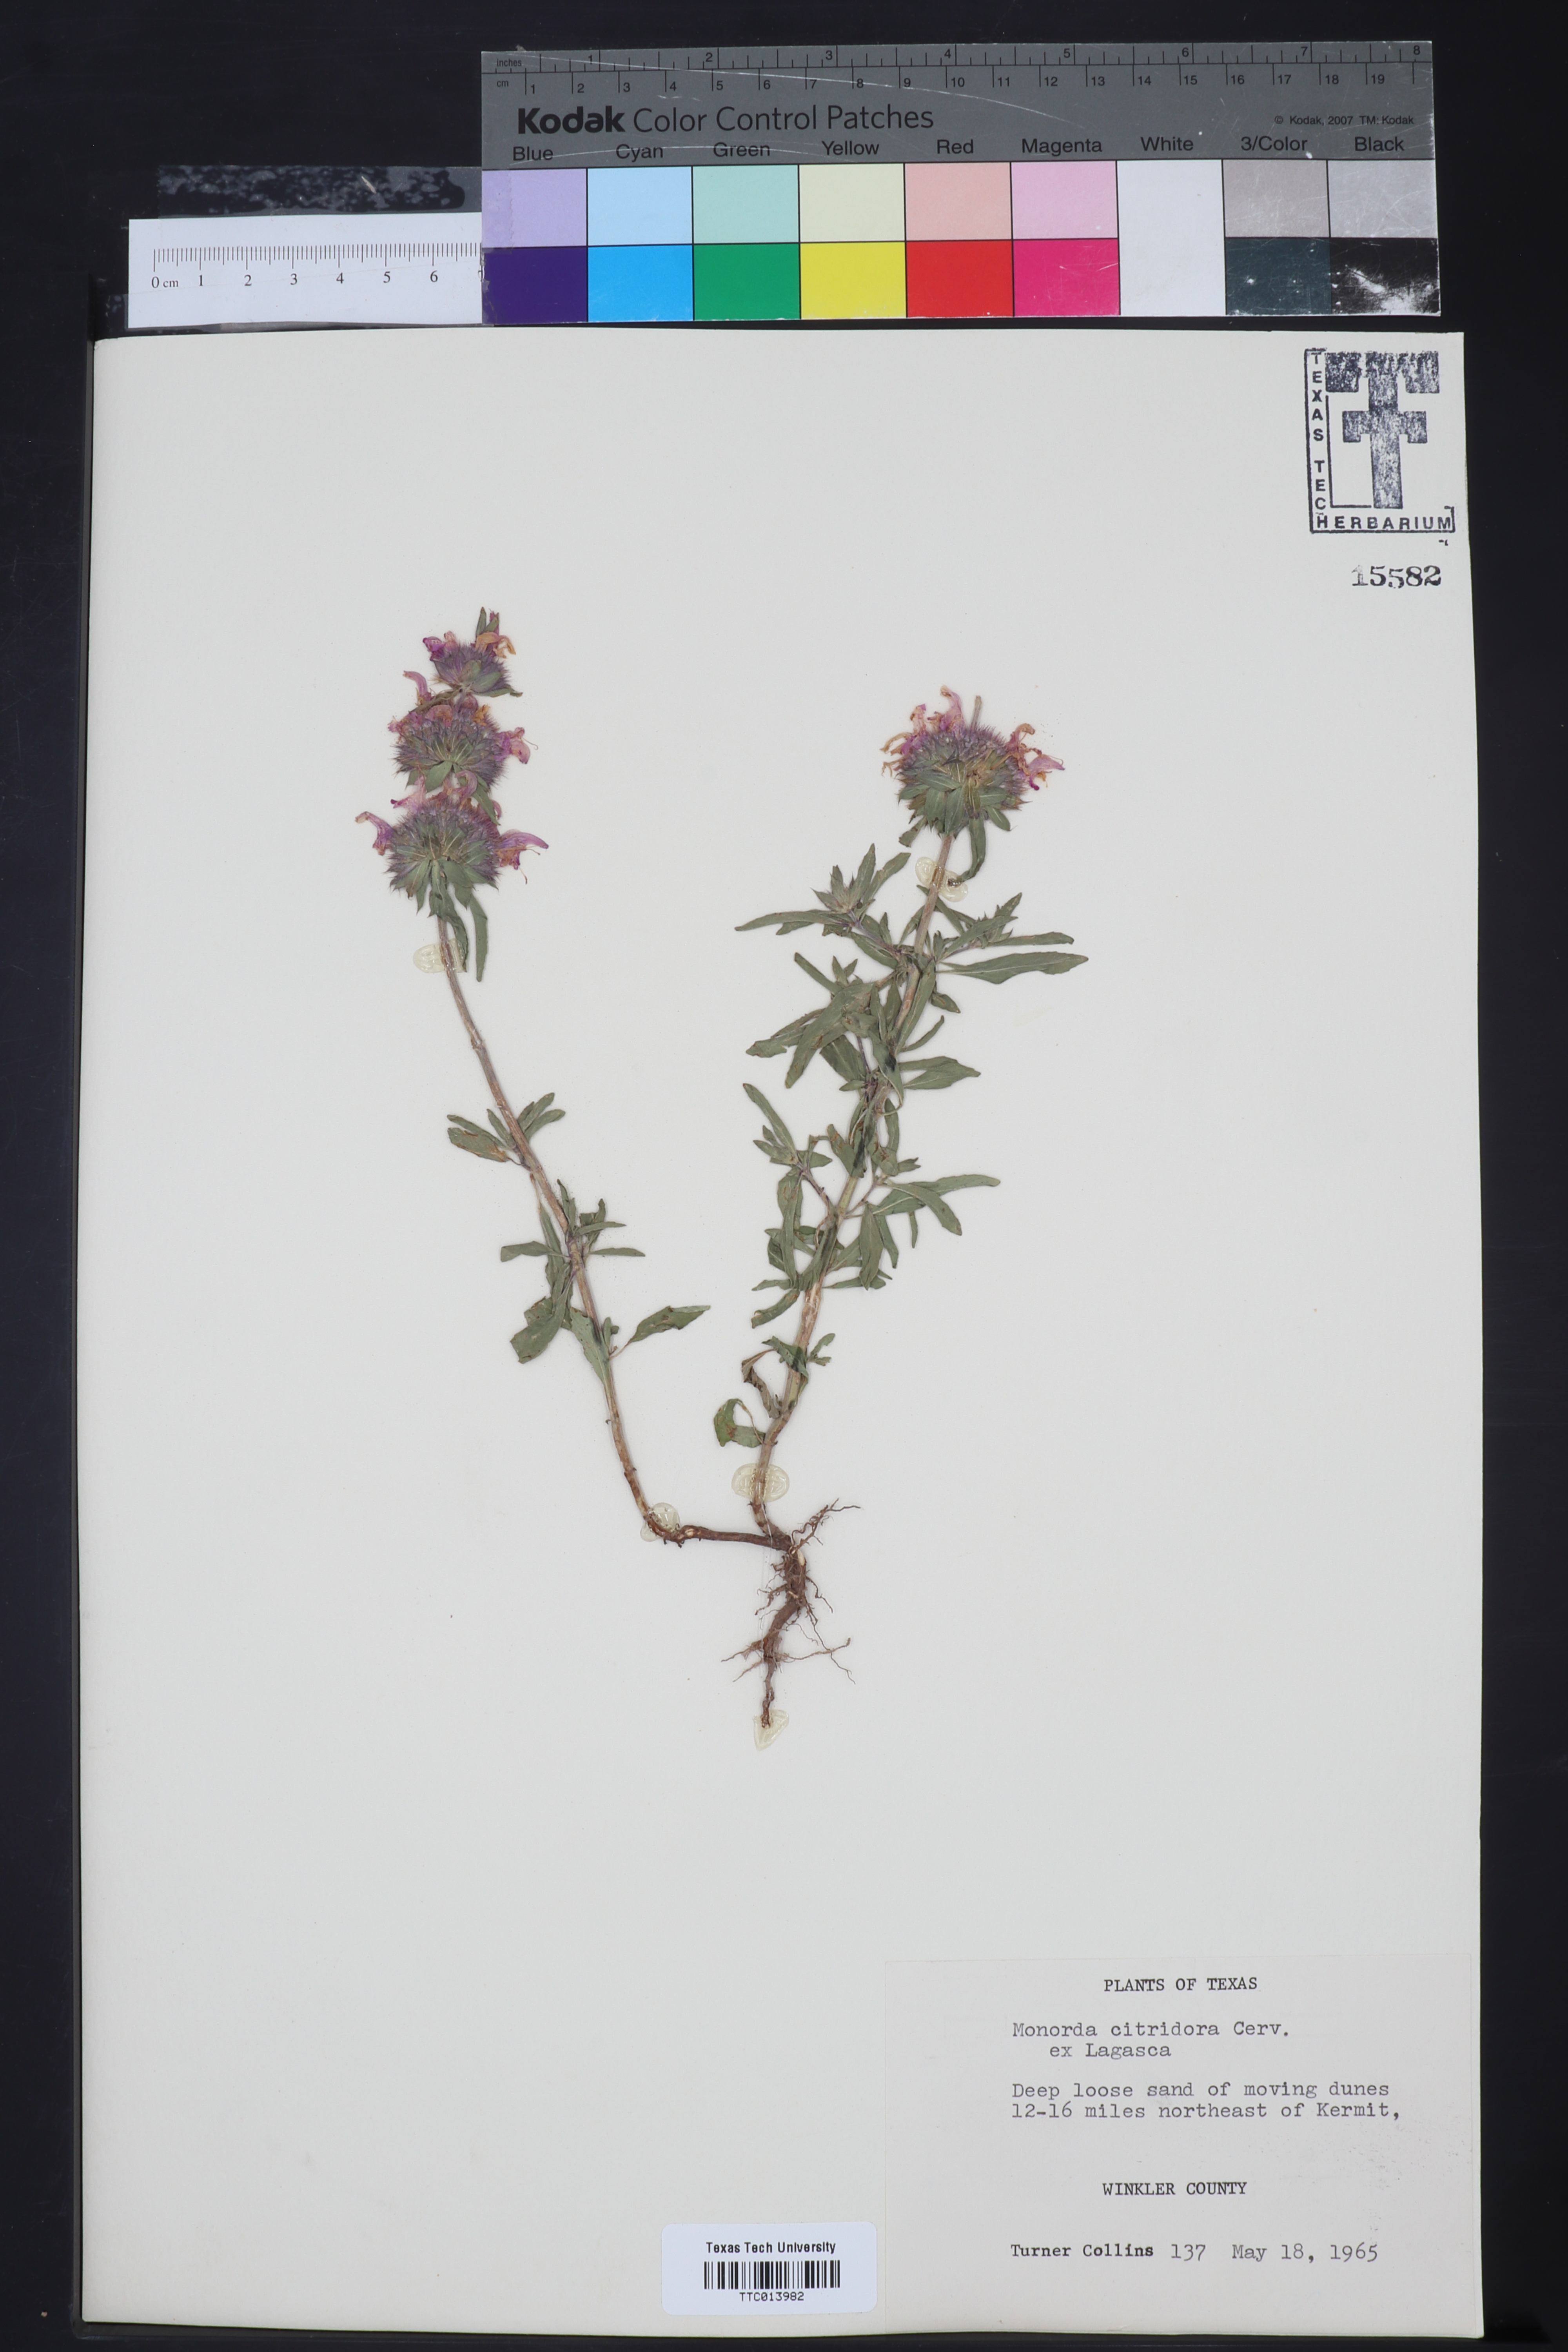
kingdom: Plantae
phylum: Tracheophyta
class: Magnoliopsida
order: Lamiales
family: Lamiaceae
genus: Monarda
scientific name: Monarda citriodora
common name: Lemon beebalm
